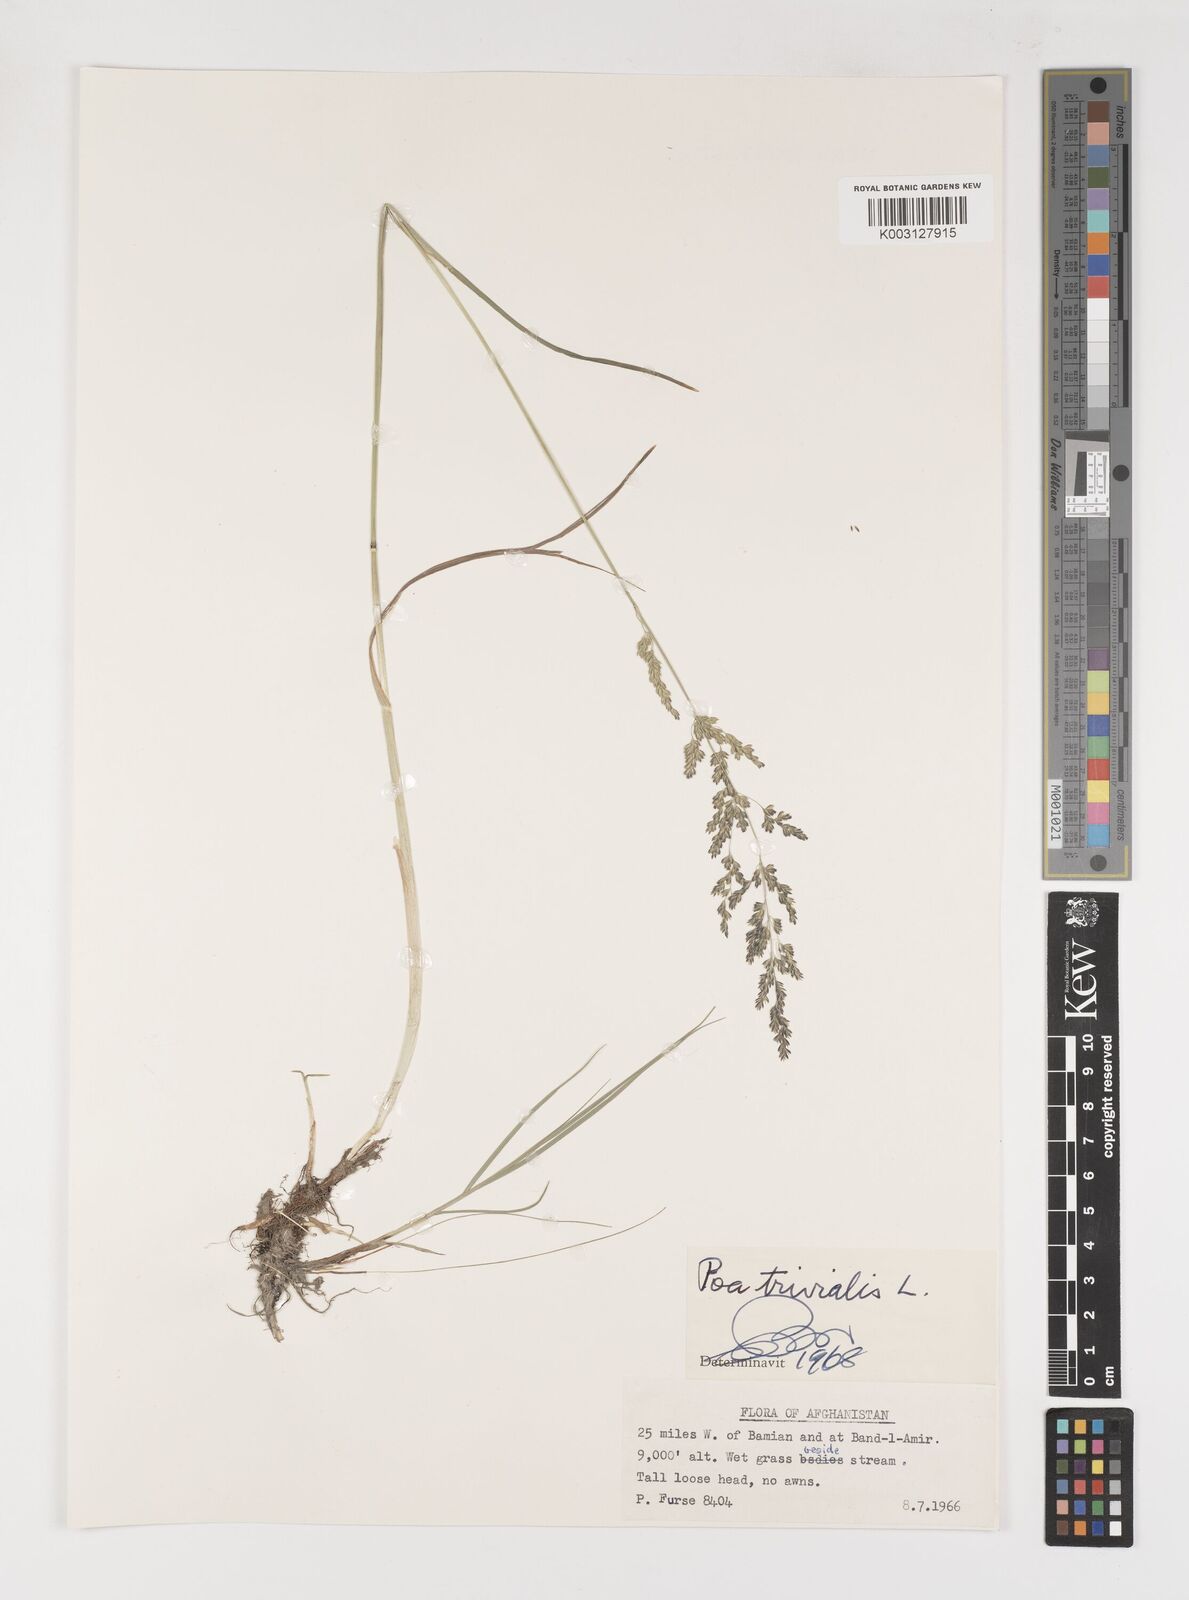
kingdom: Plantae
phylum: Tracheophyta
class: Liliopsida
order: Poales
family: Poaceae
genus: Poa
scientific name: Poa trivialis
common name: Rough bluegrass
